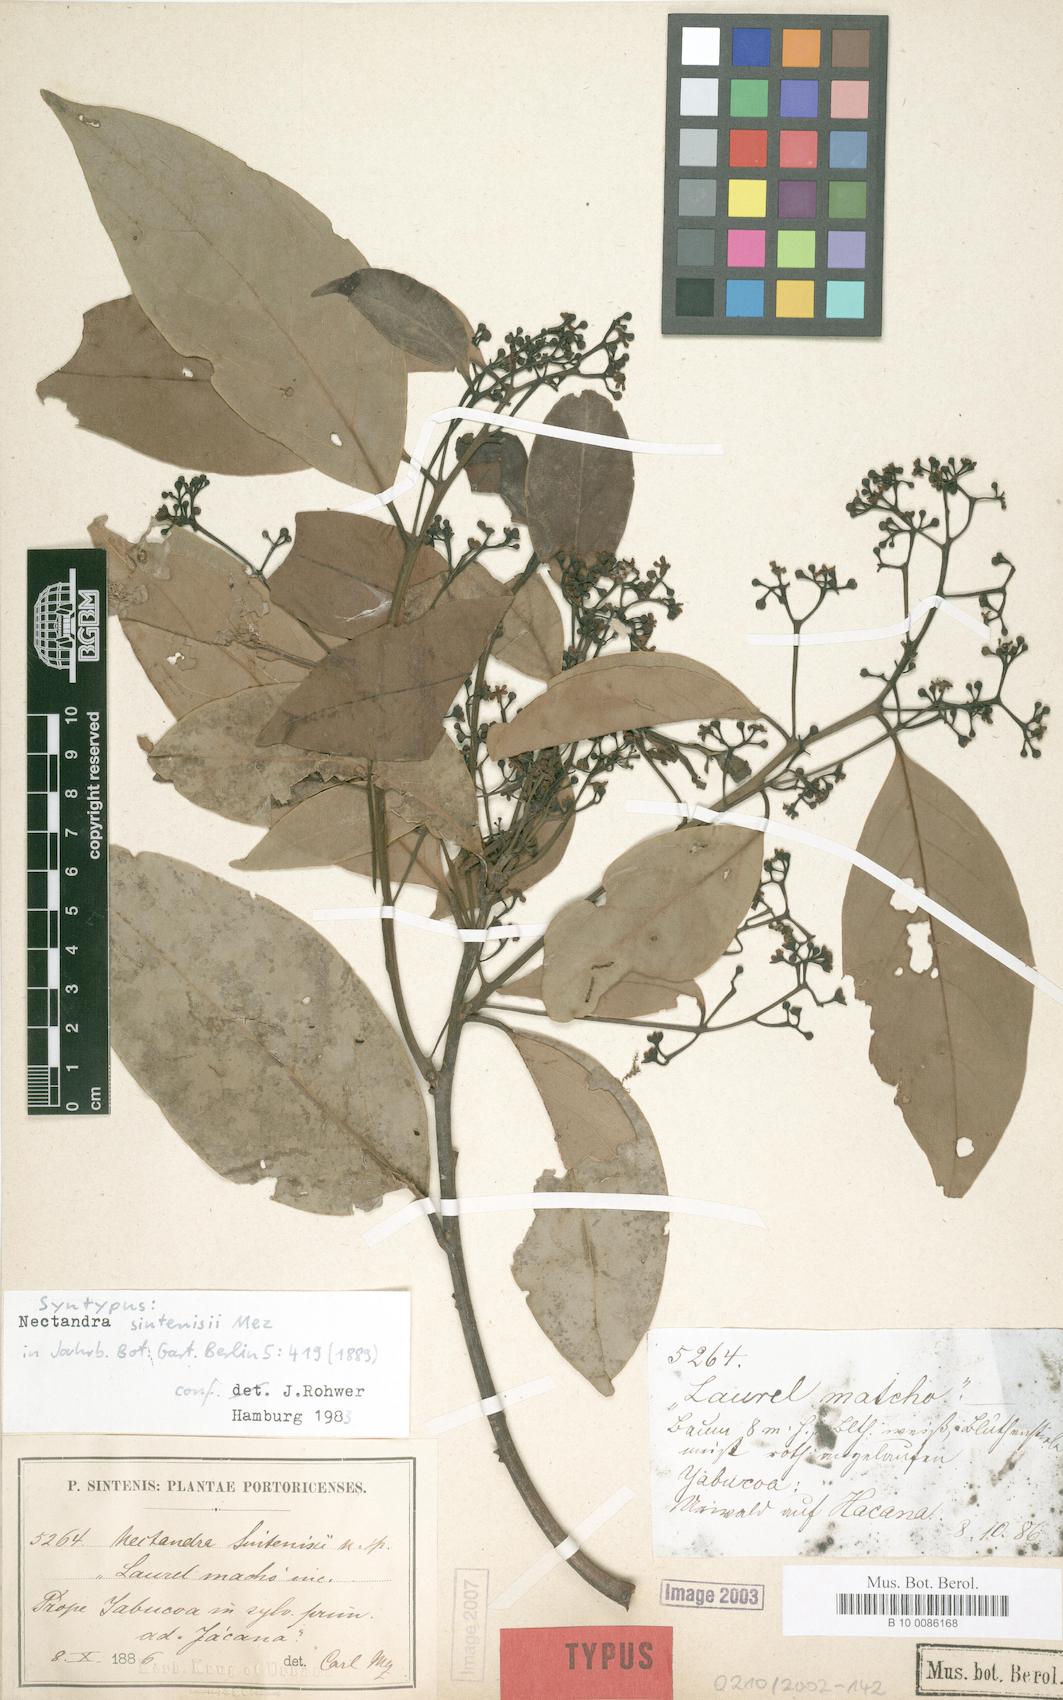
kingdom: Plantae
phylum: Tracheophyta
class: Magnoliopsida
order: Laurales
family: Lauraceae
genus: Nectandra
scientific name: Nectandra turbacensis
